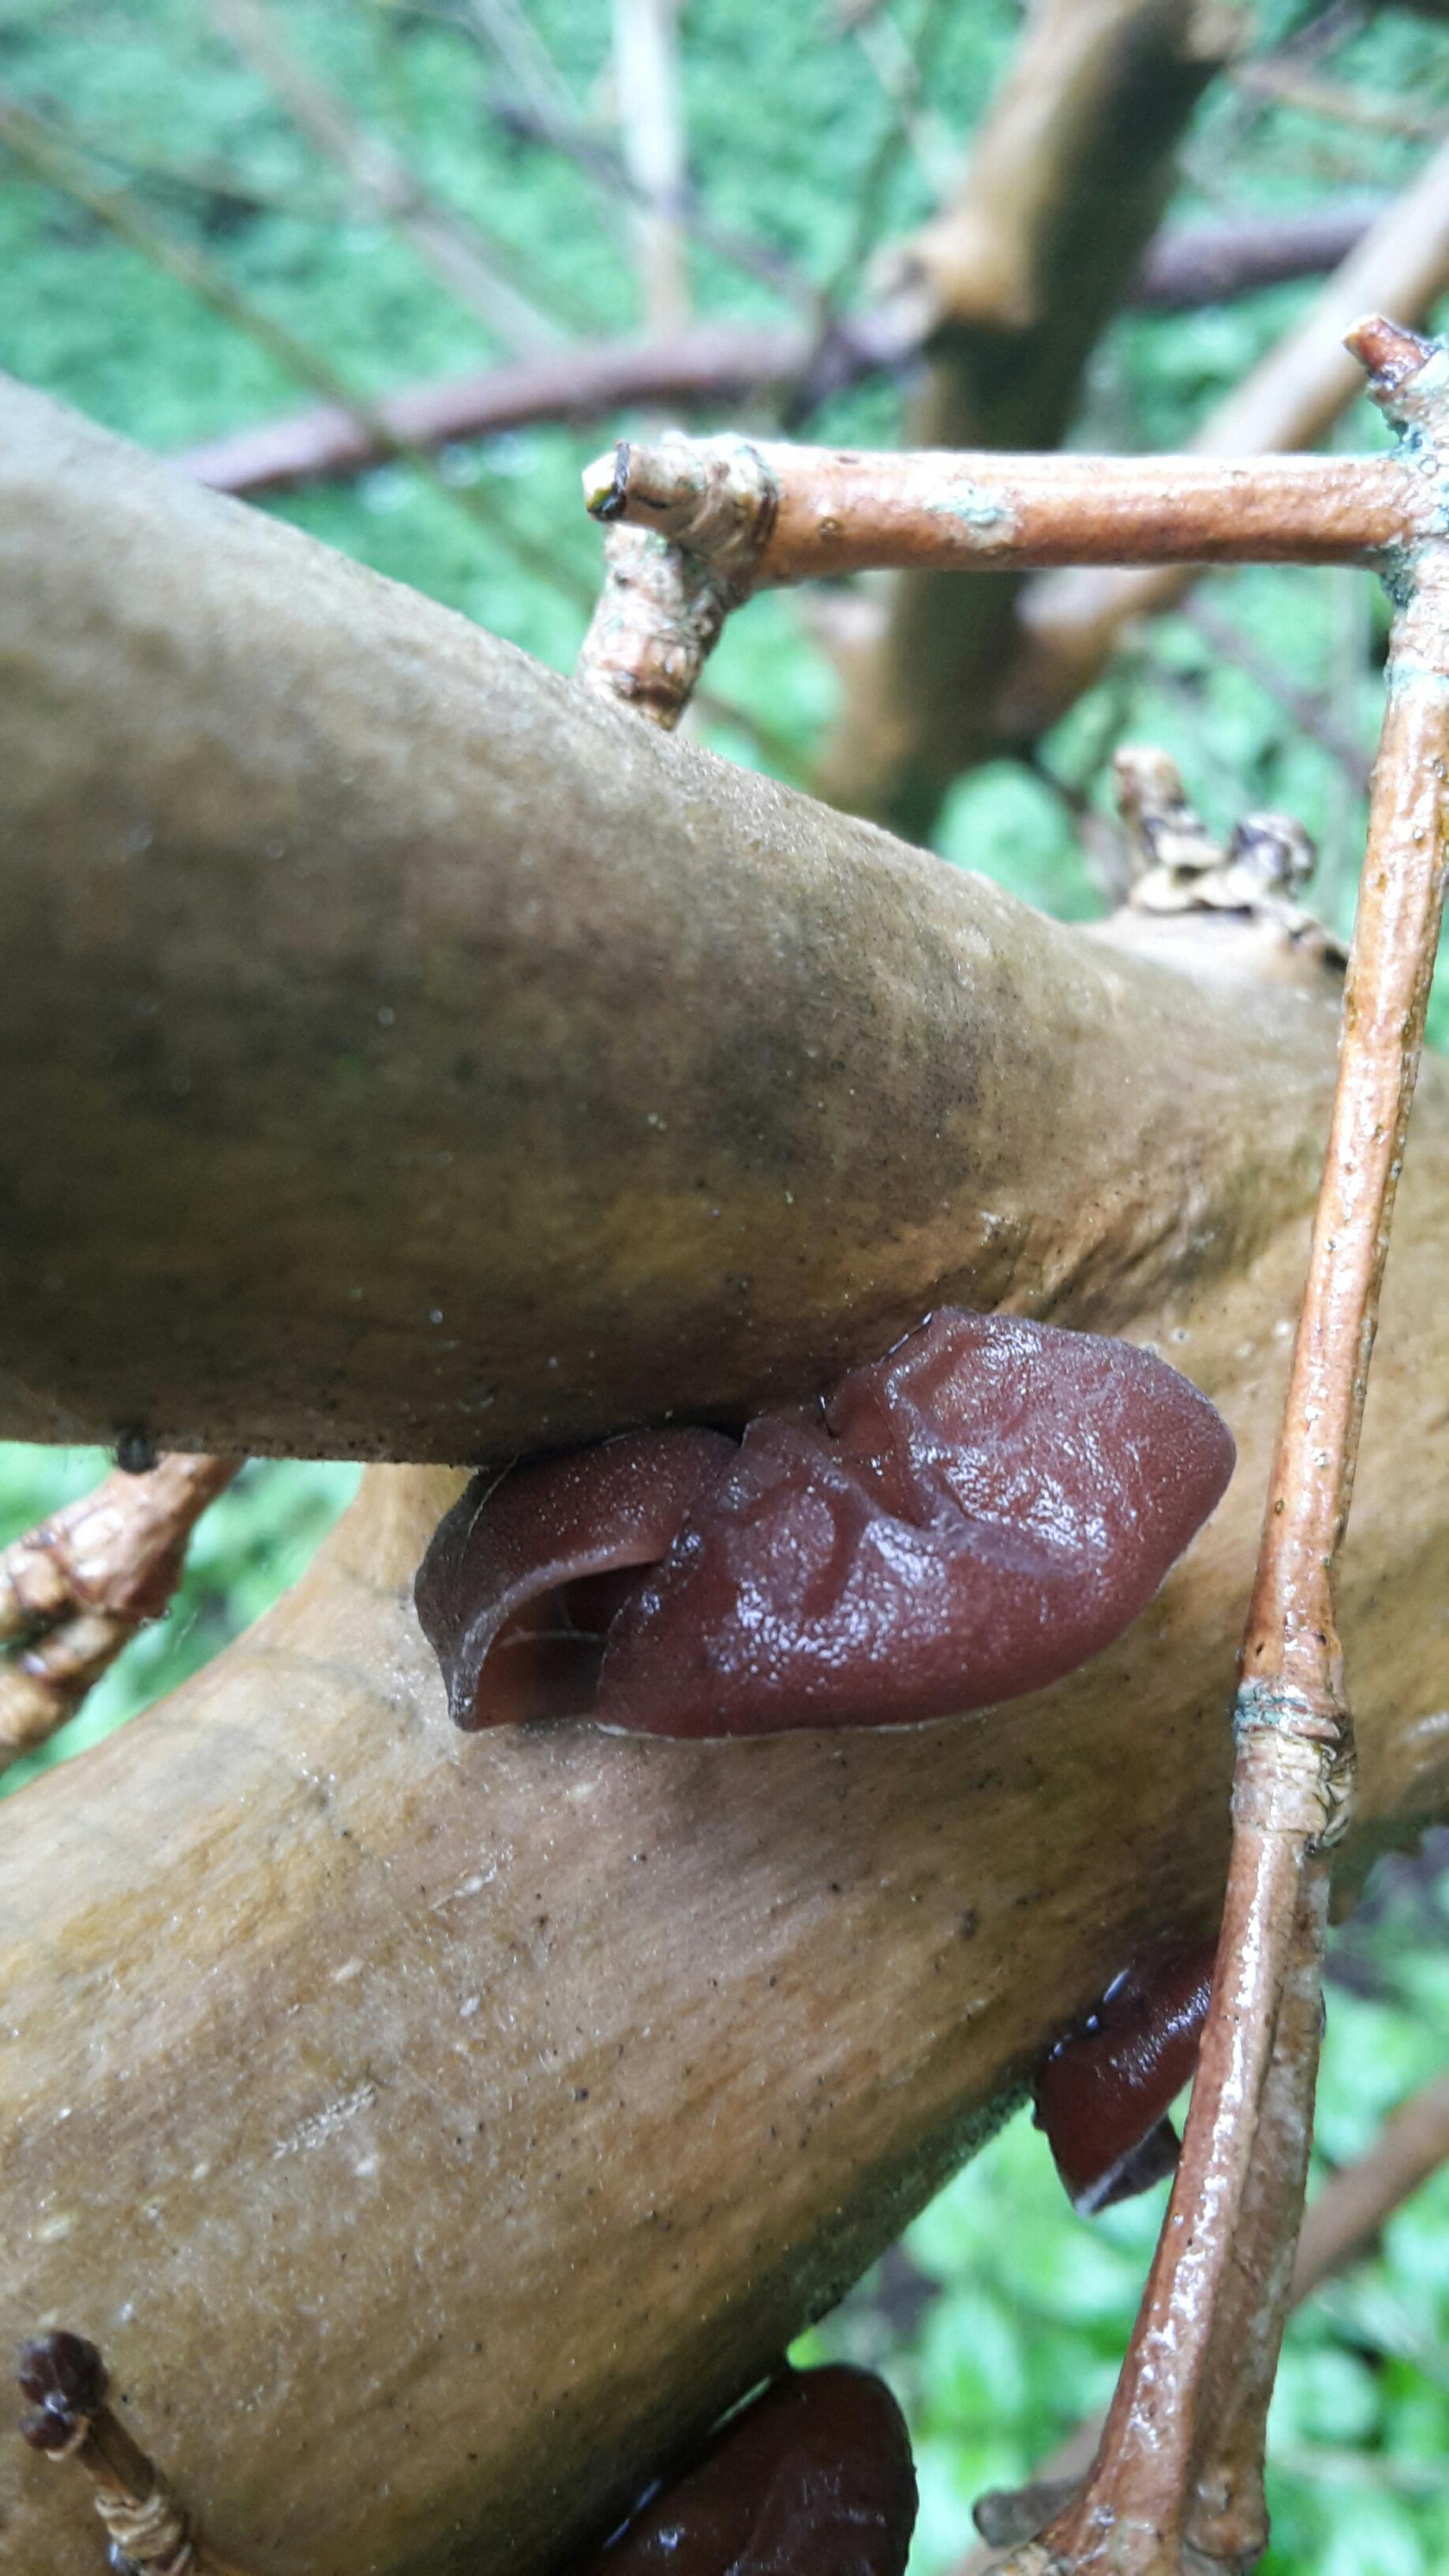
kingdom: Fungi
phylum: Basidiomycota
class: Agaricomycetes
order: Auriculariales
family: Auriculariaceae
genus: Auricularia
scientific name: Auricularia auricula-judae
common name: almindelig judasøre
